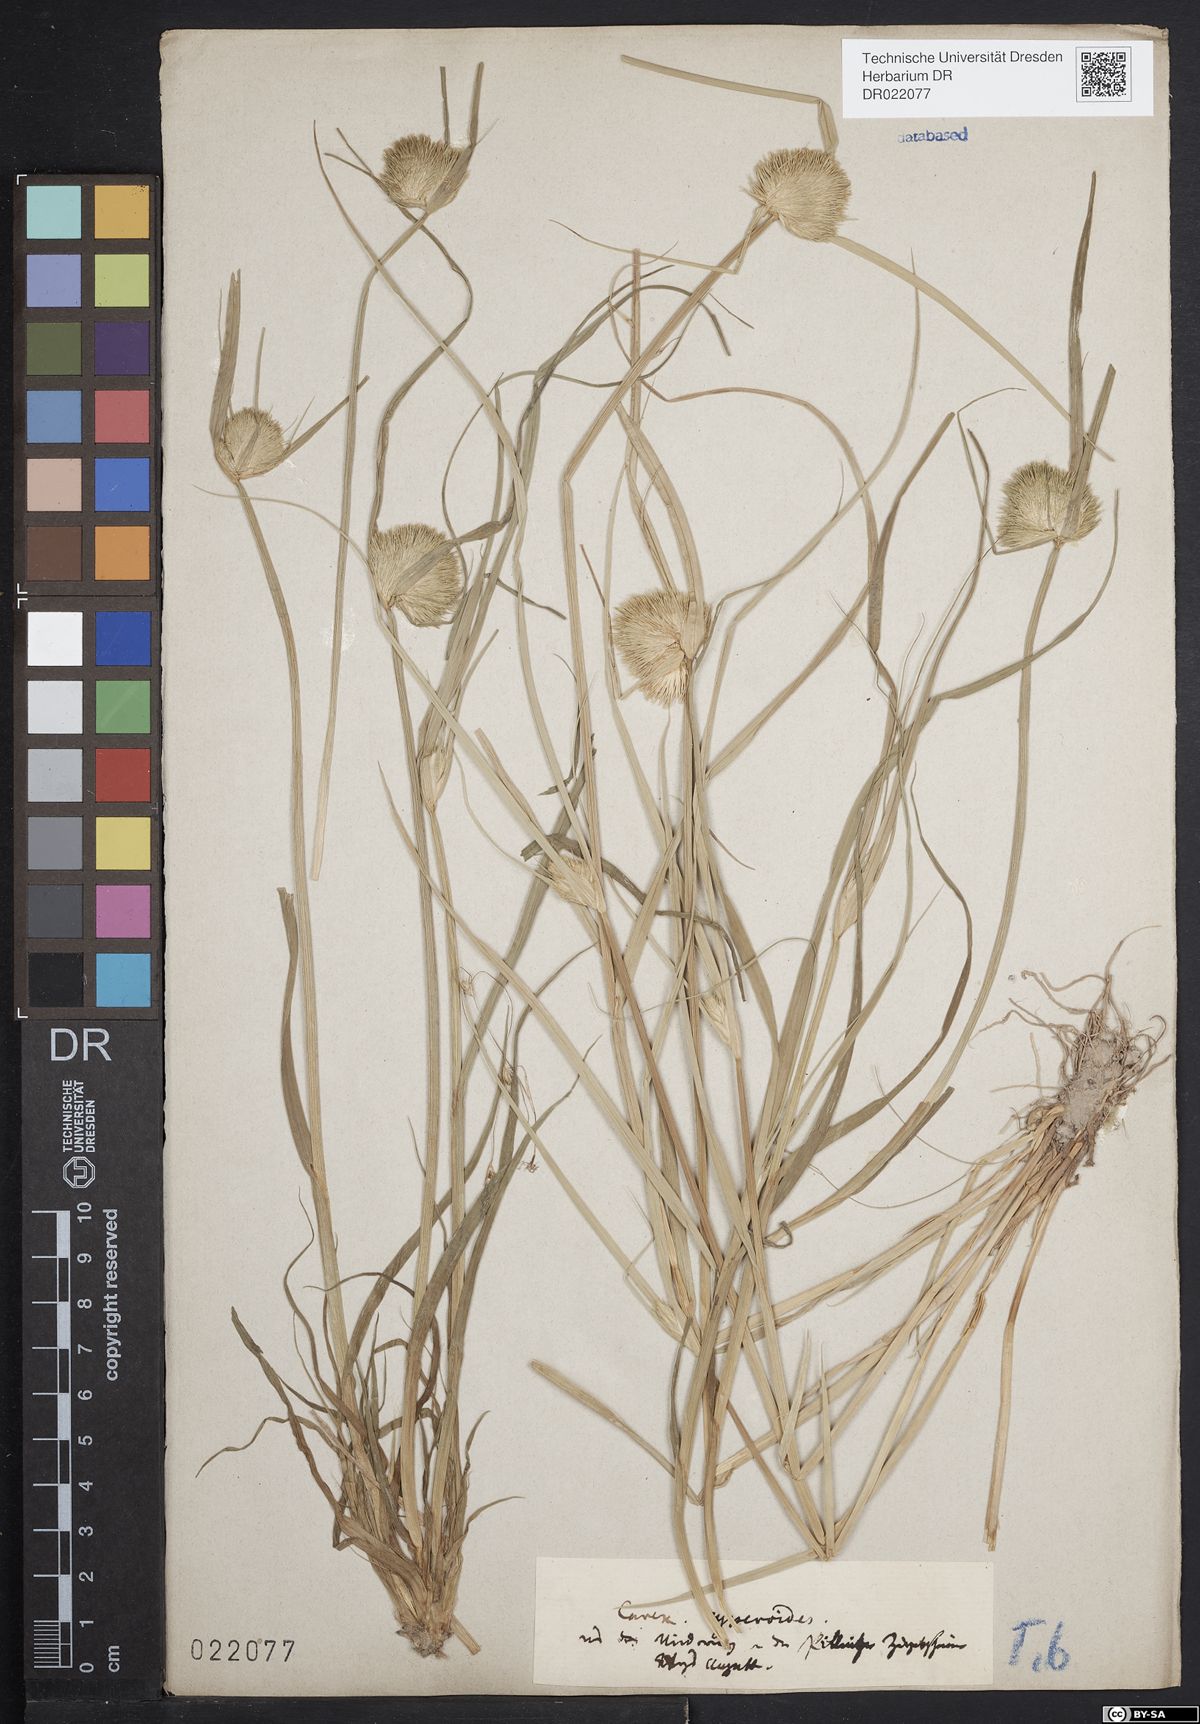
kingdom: Plantae
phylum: Tracheophyta
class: Liliopsida
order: Poales
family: Cyperaceae
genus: Carex
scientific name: Carex bohemica
